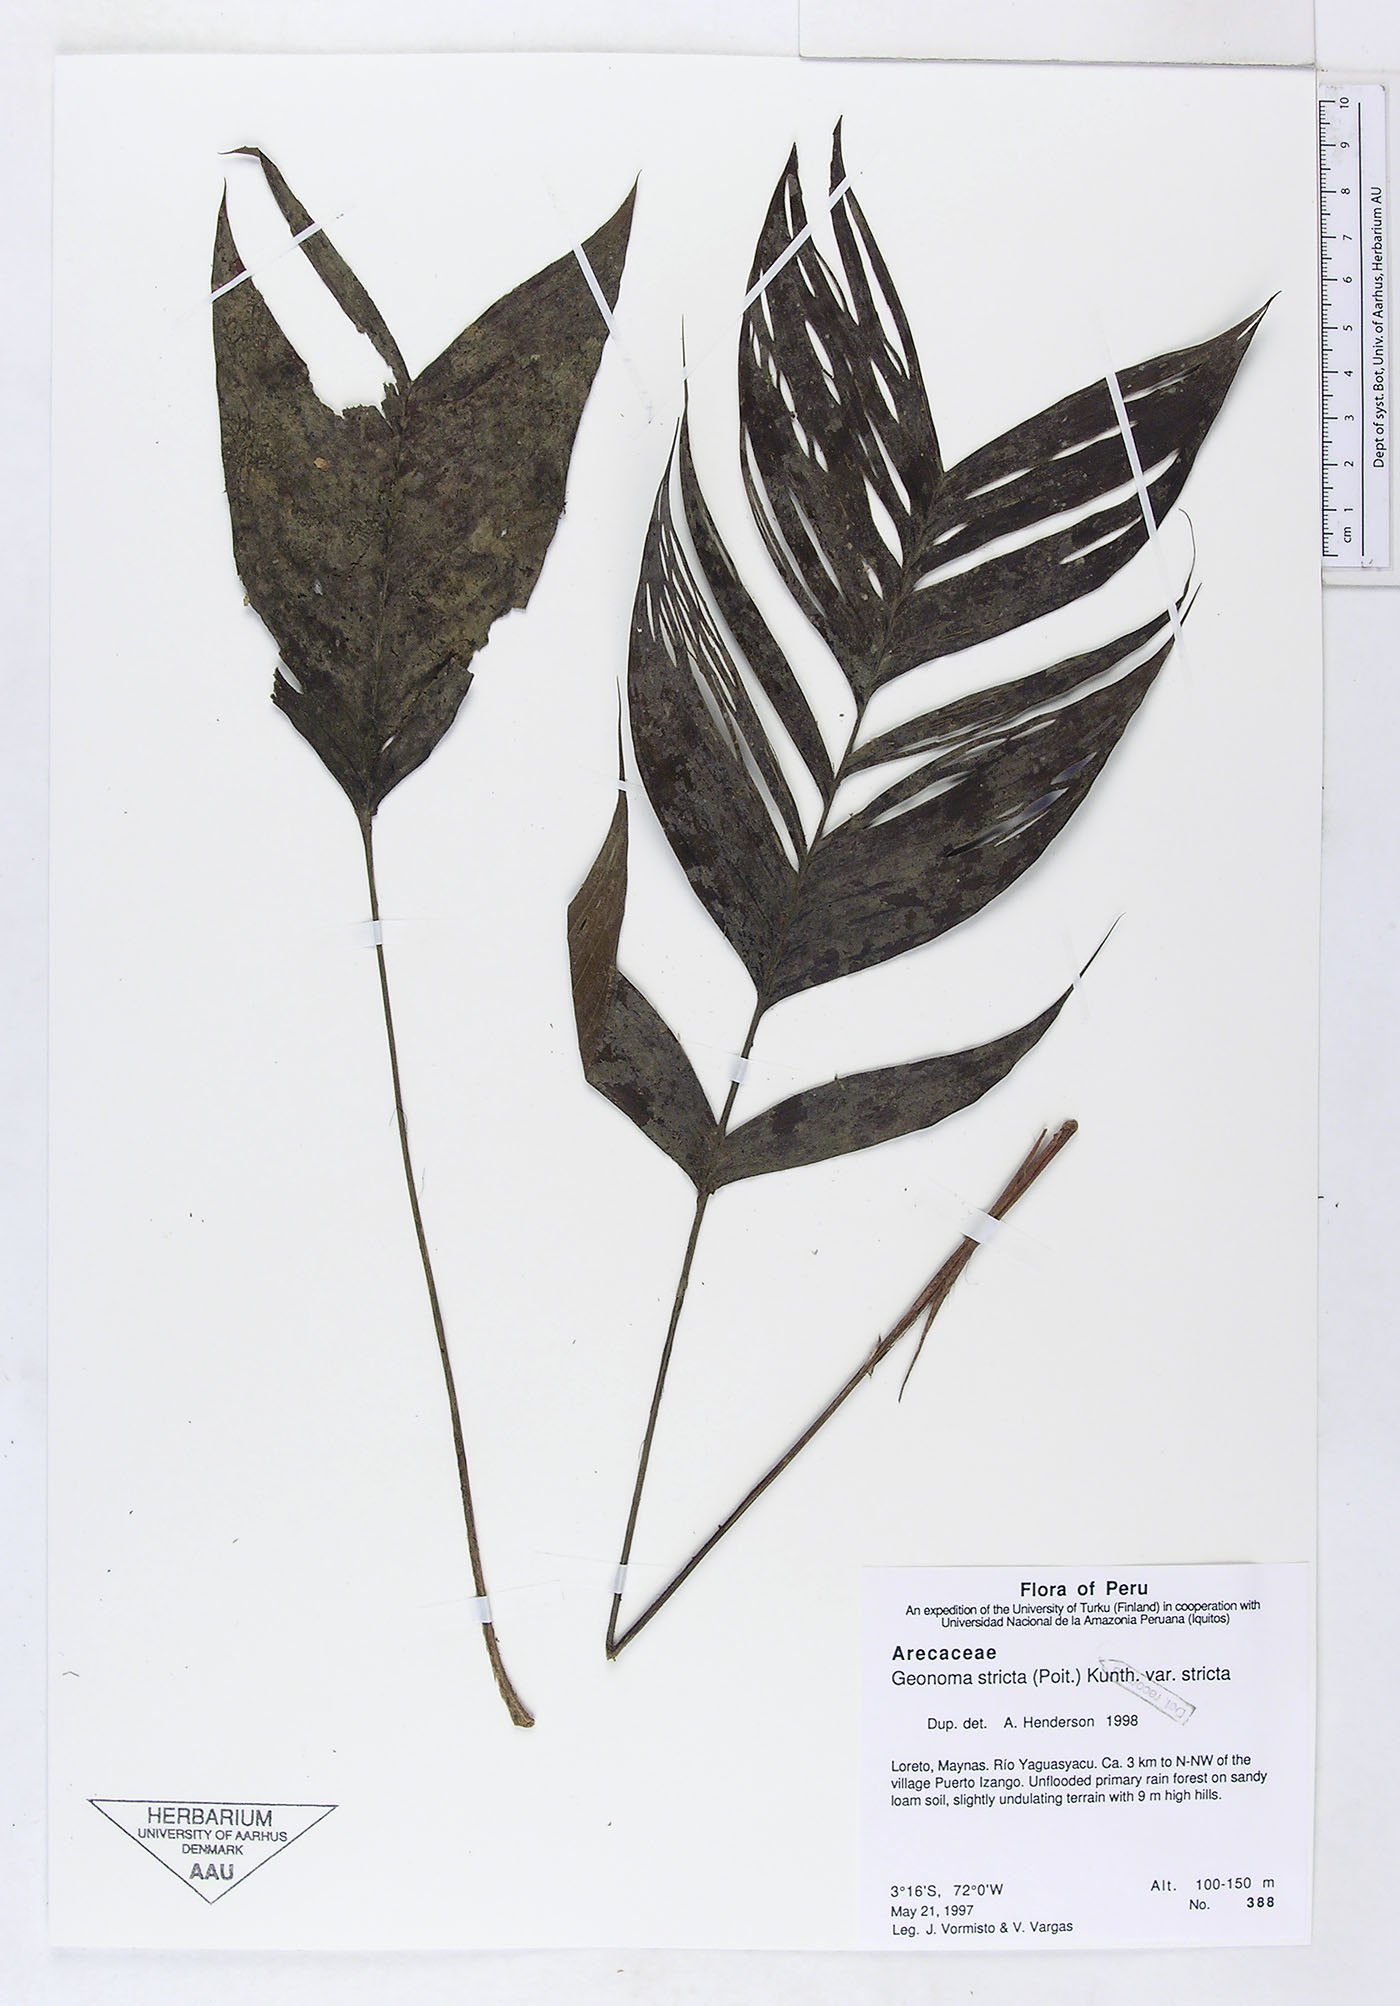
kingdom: Plantae
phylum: Tracheophyta
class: Liliopsida
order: Arecales
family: Arecaceae
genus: Geonoma
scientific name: Geonoma stricta
